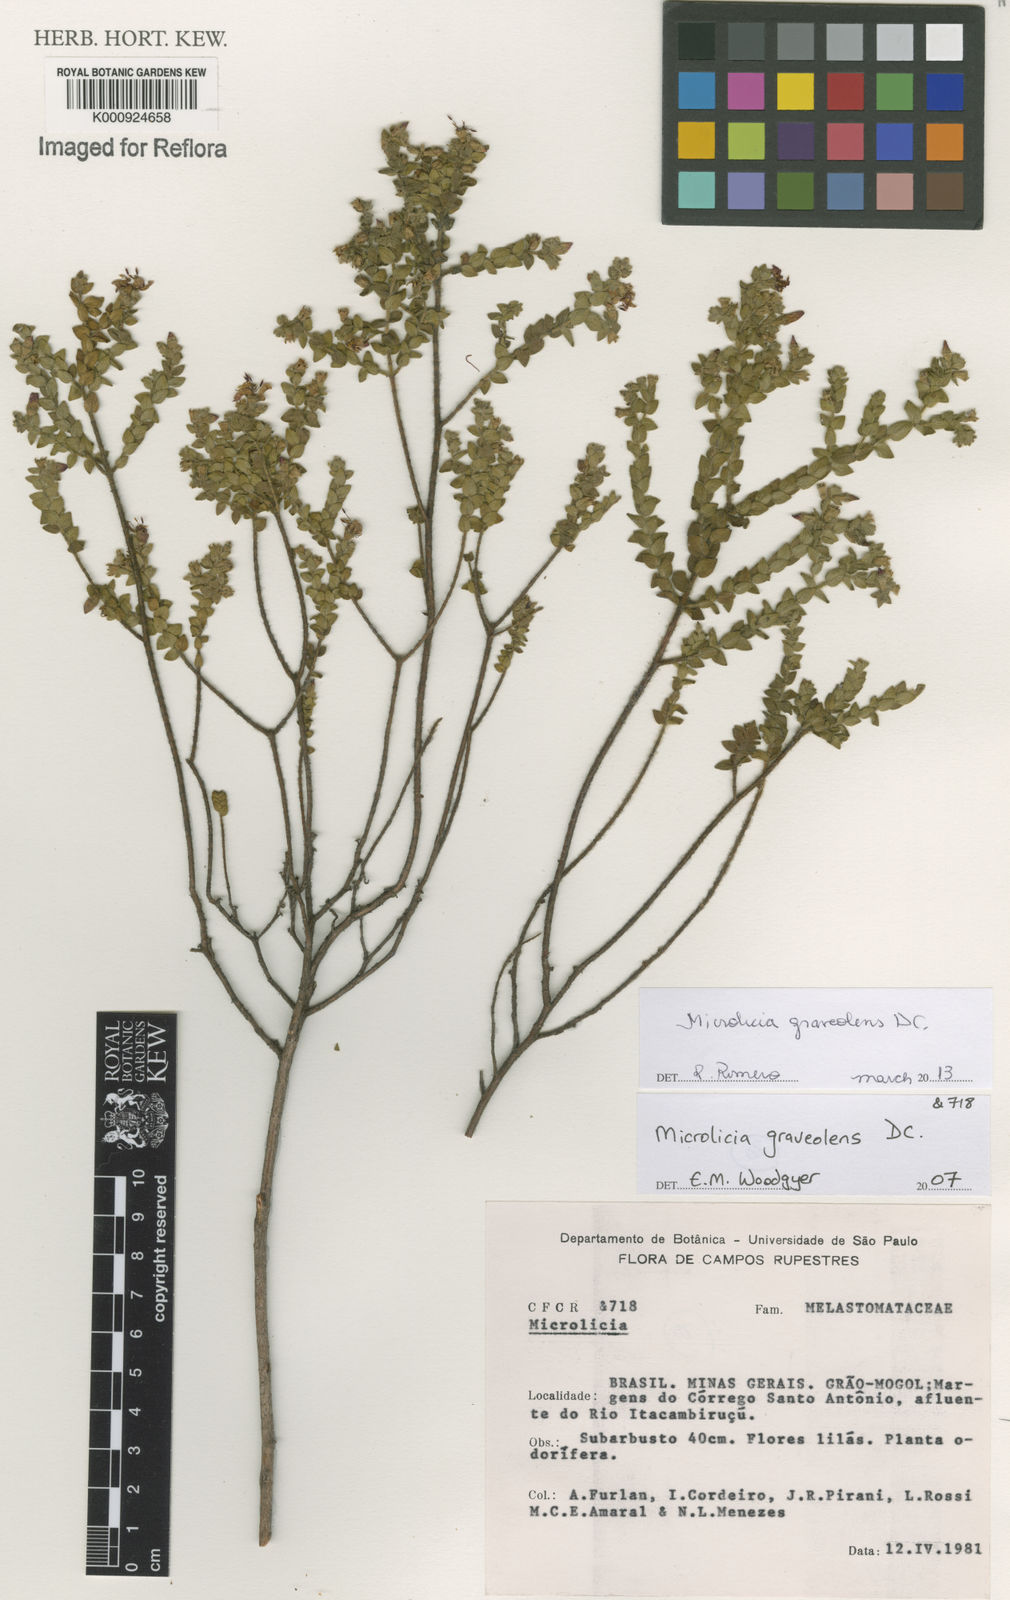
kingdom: Plantae
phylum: Tracheophyta
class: Magnoliopsida
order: Myrtales
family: Melastomataceae
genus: Microlicia
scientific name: Microlicia graveolens
